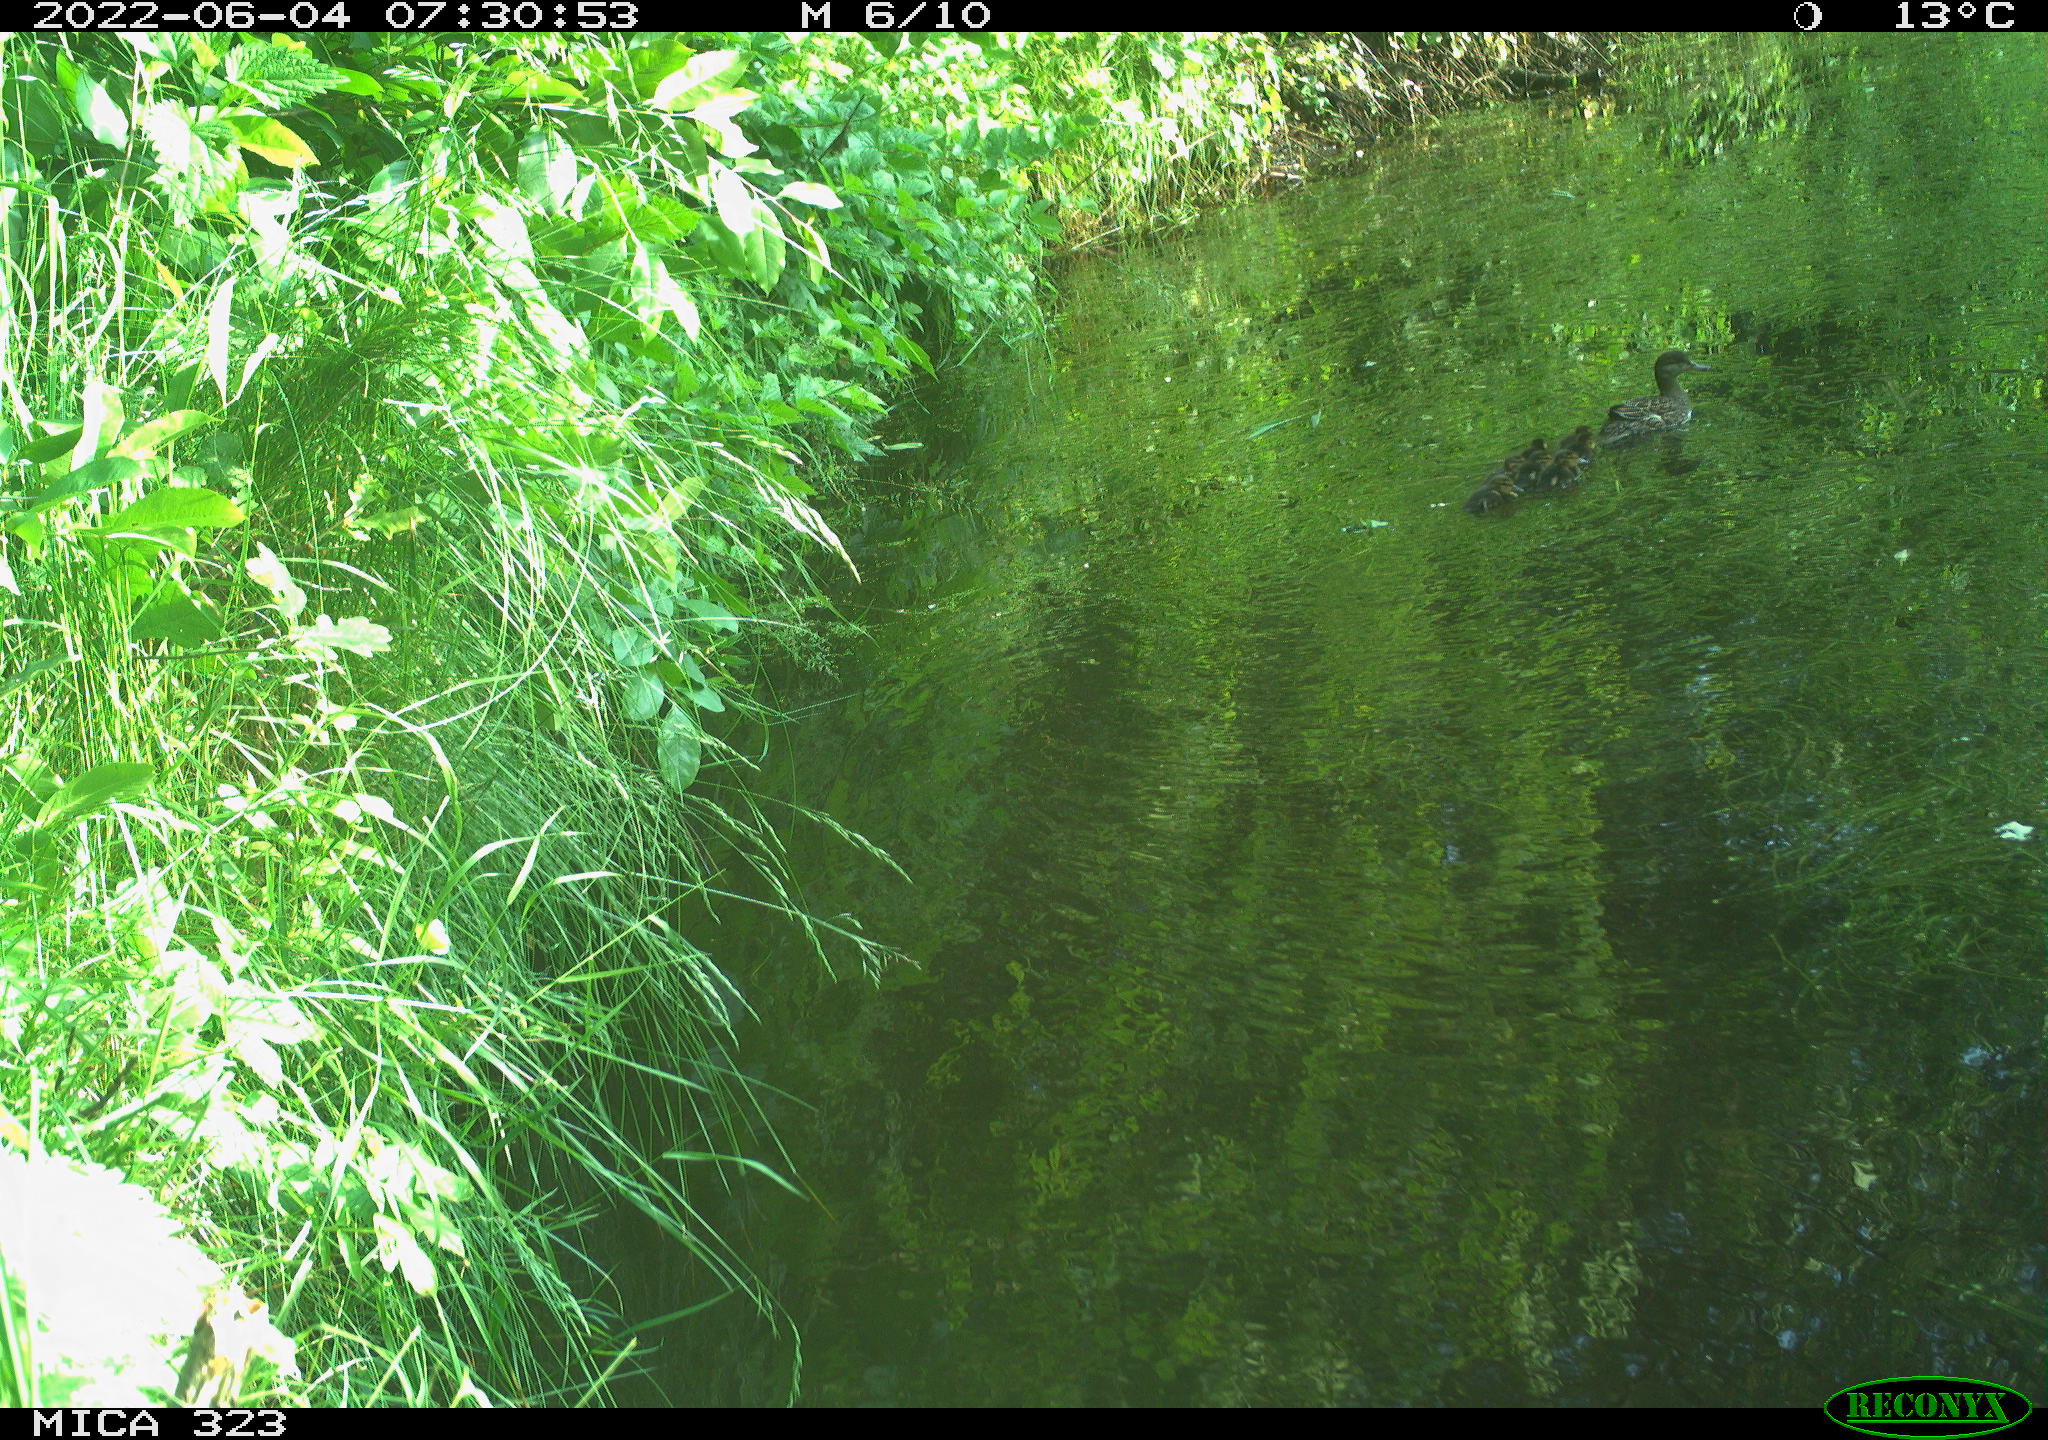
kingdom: Animalia
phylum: Chordata
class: Aves
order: Anseriformes
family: Anatidae
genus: Anas
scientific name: Anas platyrhynchos
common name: Mallard
